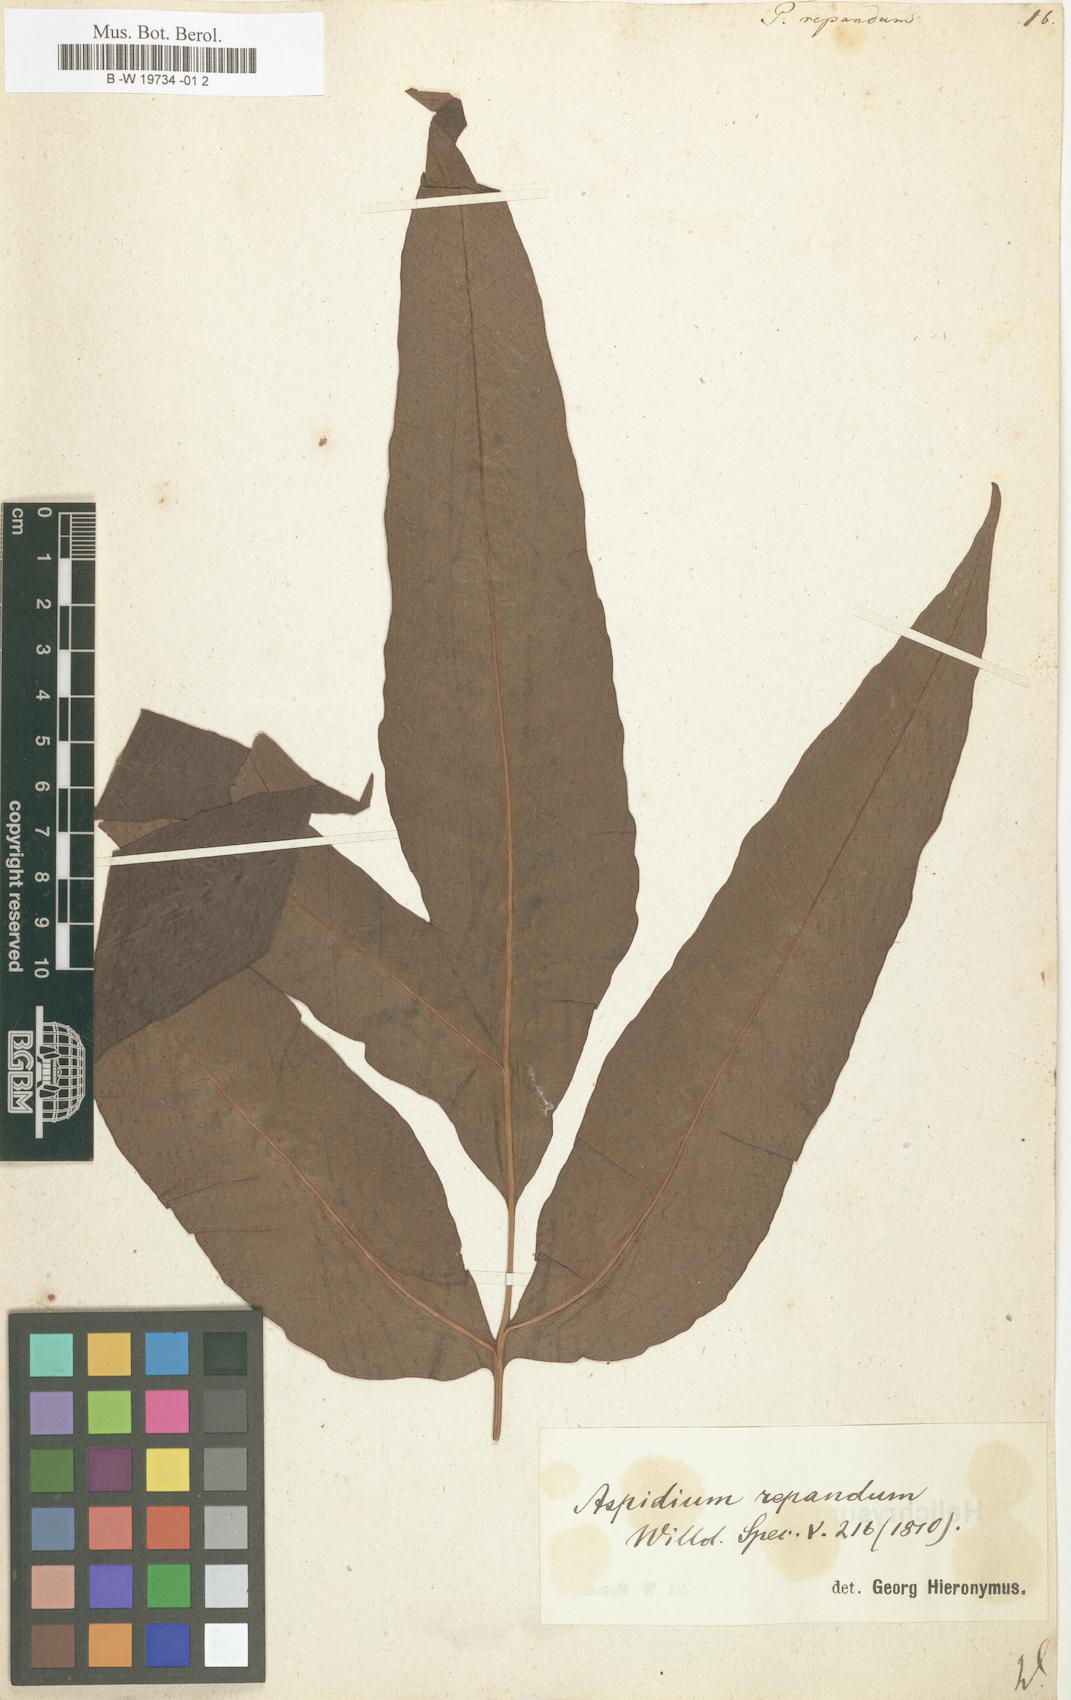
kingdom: Plantae
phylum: Tracheophyta
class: Polypodiopsida
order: Polypodiales
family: Tectariaceae
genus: Tectaria
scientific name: Tectaria repanda
